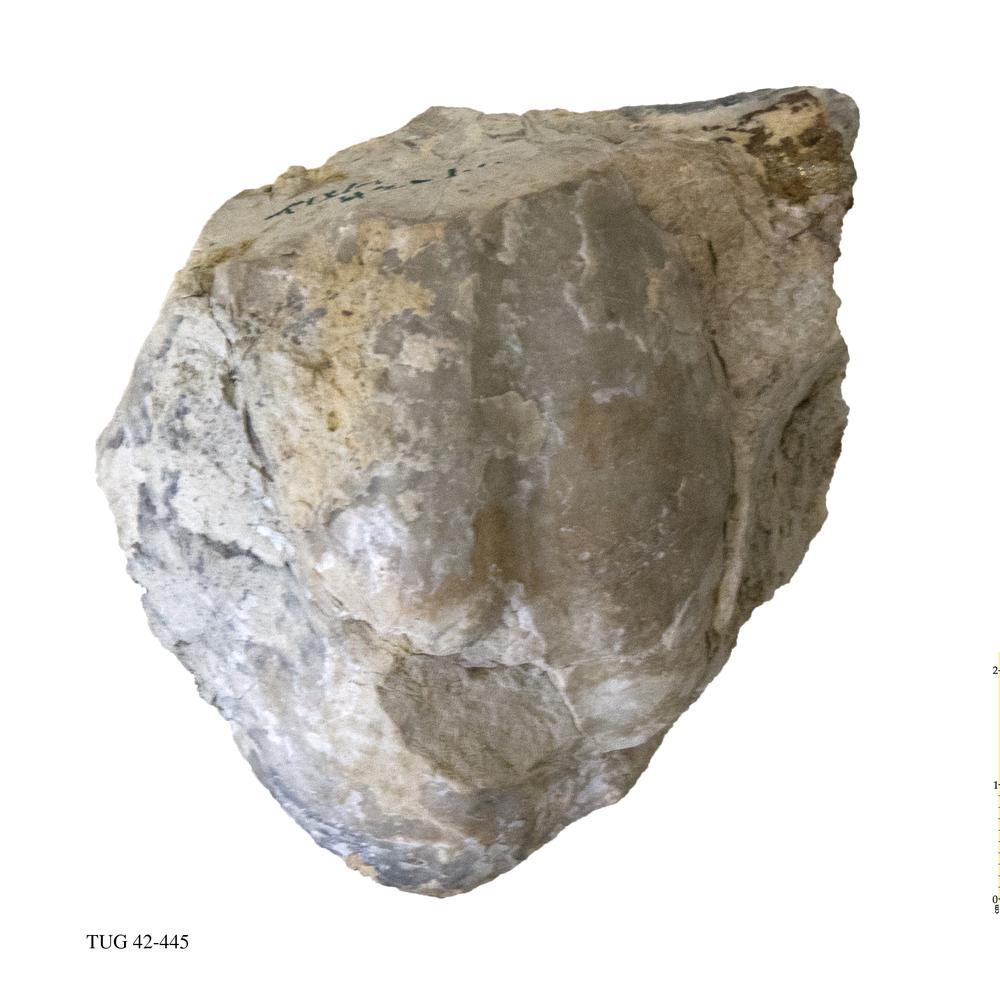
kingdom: Animalia
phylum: Brachiopoda
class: Rhynchonellata
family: Pentameridae
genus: Pentamerus
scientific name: Pentamerus oblongus
